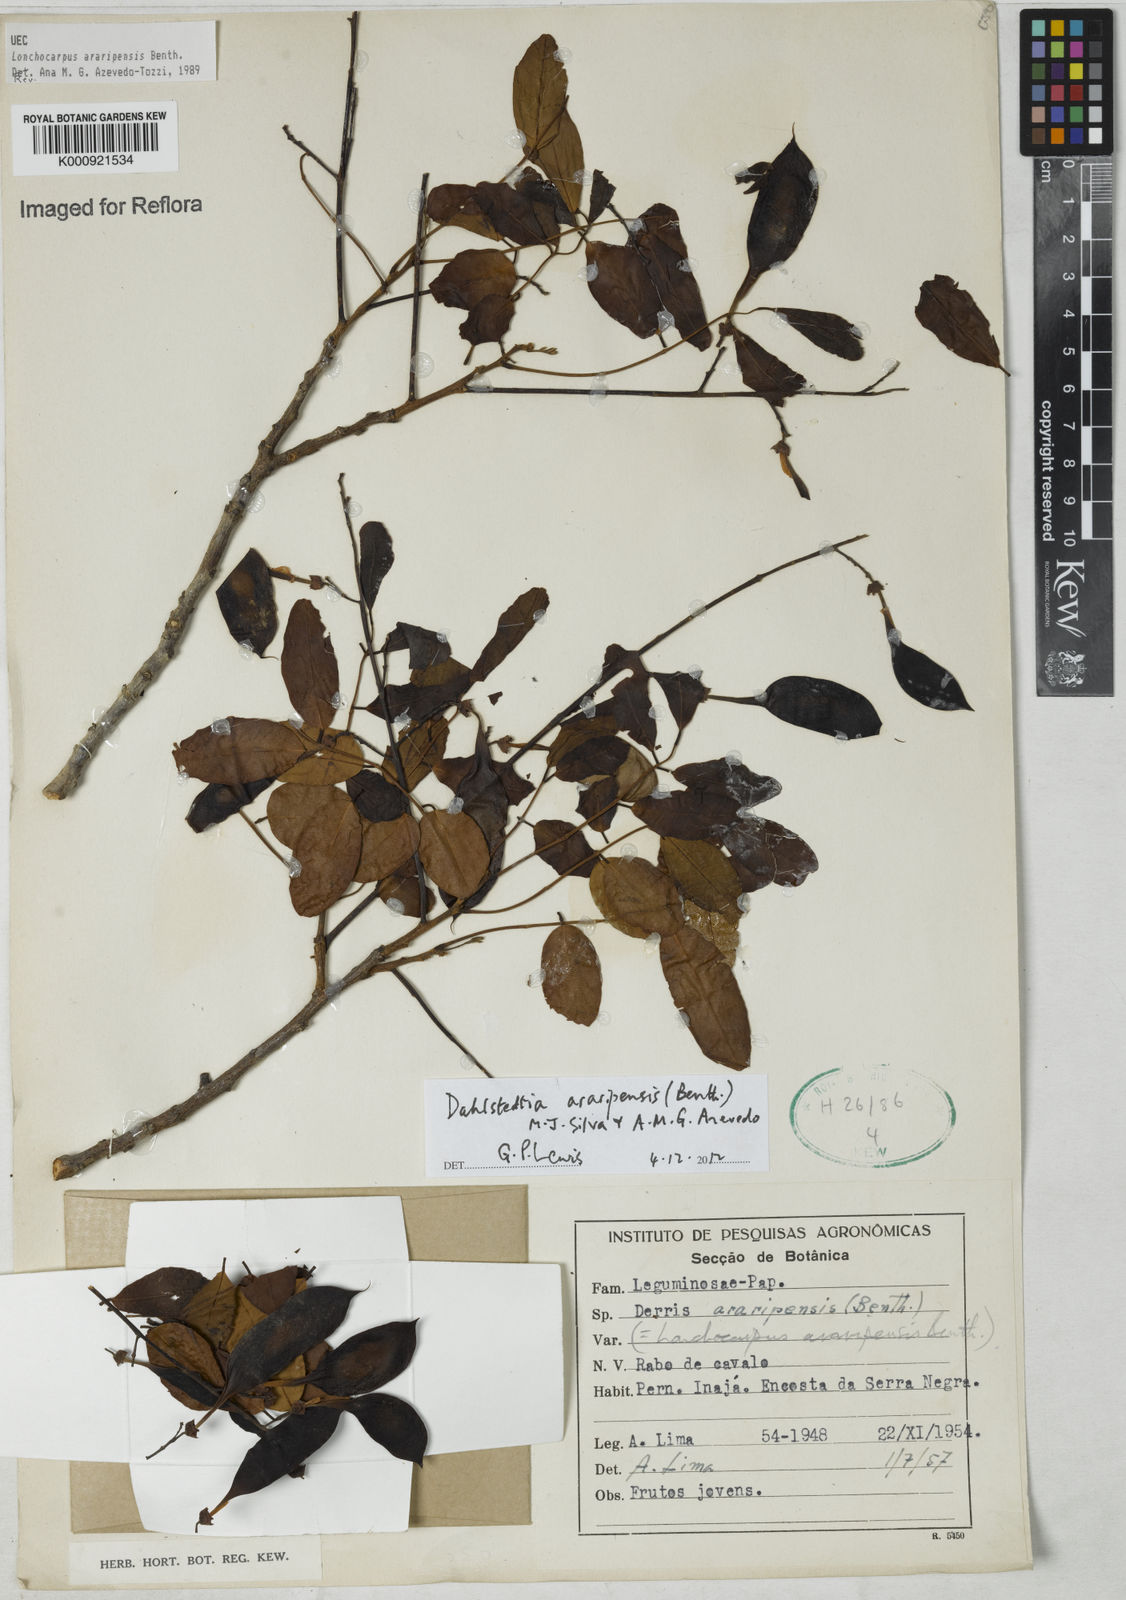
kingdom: Plantae
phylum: Tracheophyta
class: Magnoliopsida
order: Fabales
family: Fabaceae
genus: Dahlstedtia
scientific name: Dahlstedtia araripensis
